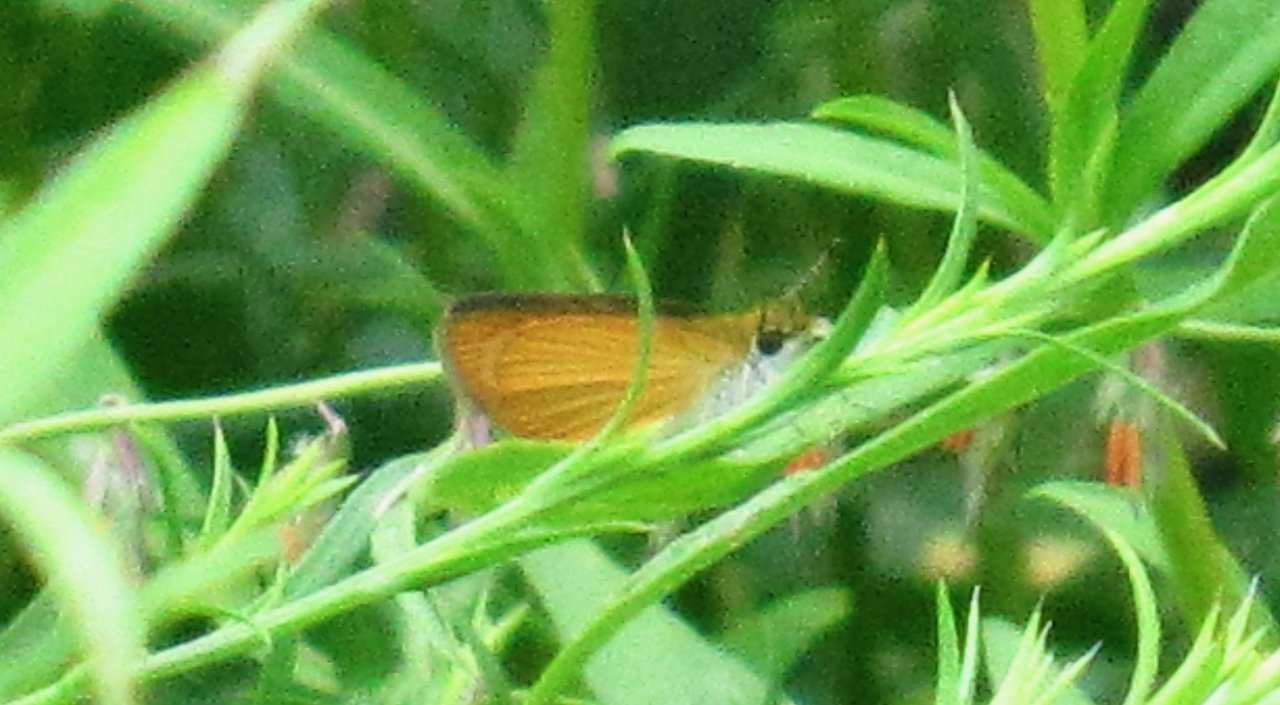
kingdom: Animalia
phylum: Arthropoda
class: Insecta
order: Lepidoptera
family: Hesperiidae
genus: Ancyloxypha
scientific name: Ancyloxypha numitor
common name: Least Skipper
